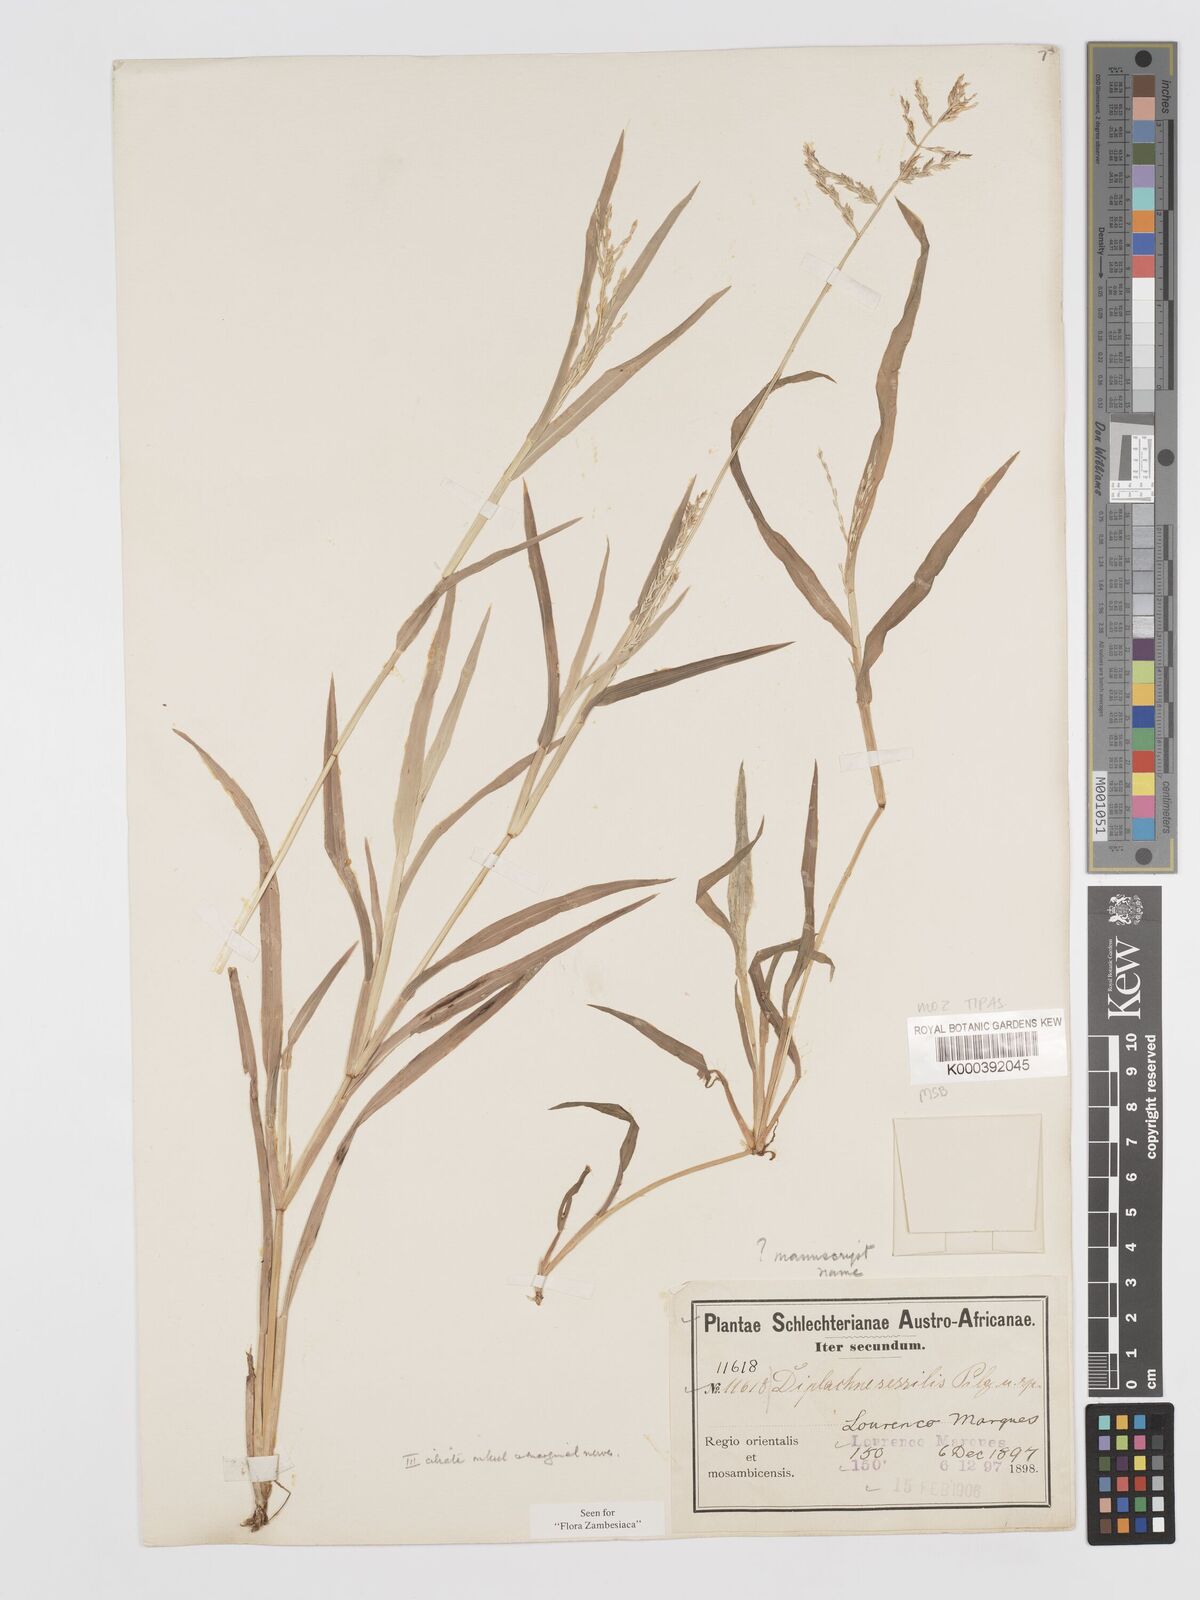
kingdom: Plantae
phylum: Tracheophyta
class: Liliopsida
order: Poales
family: Poaceae
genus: Brachychloa
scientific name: Brachychloa fragilis
